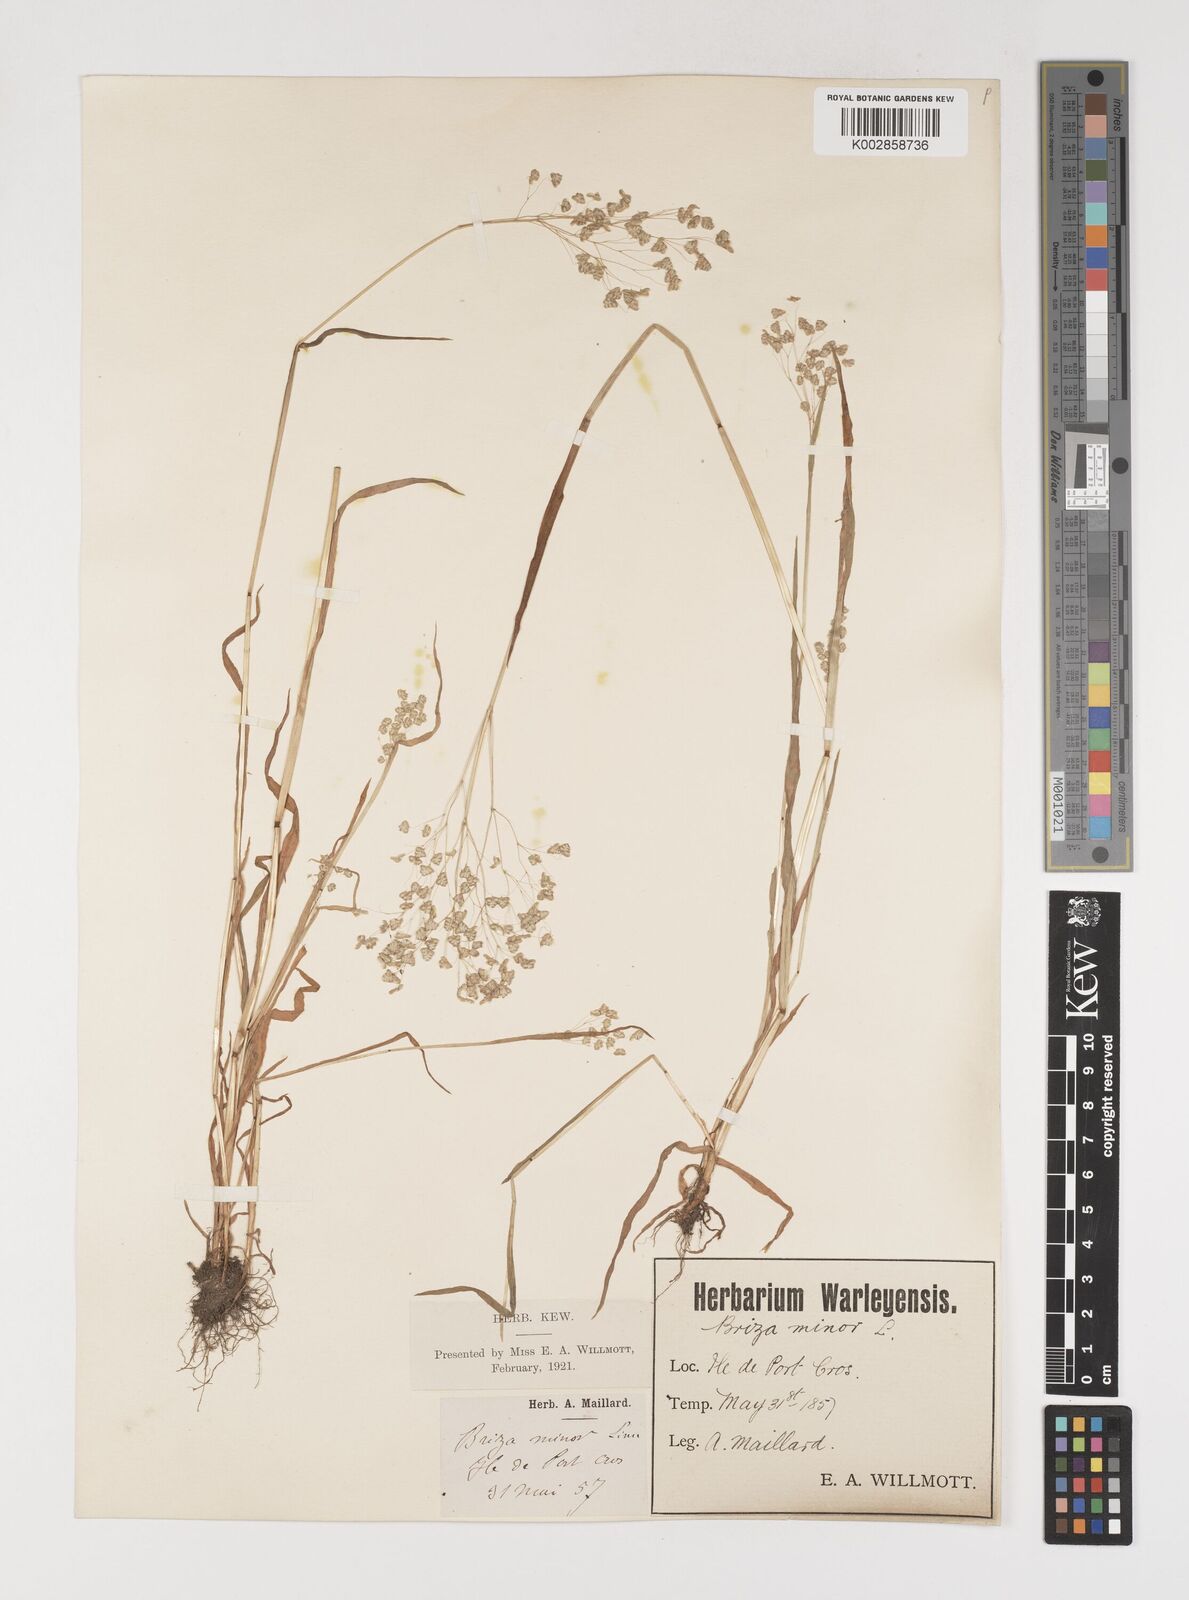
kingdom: Plantae
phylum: Tracheophyta
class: Liliopsida
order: Poales
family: Poaceae
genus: Briza
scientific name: Briza minor
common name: Lesser quaking-grass
